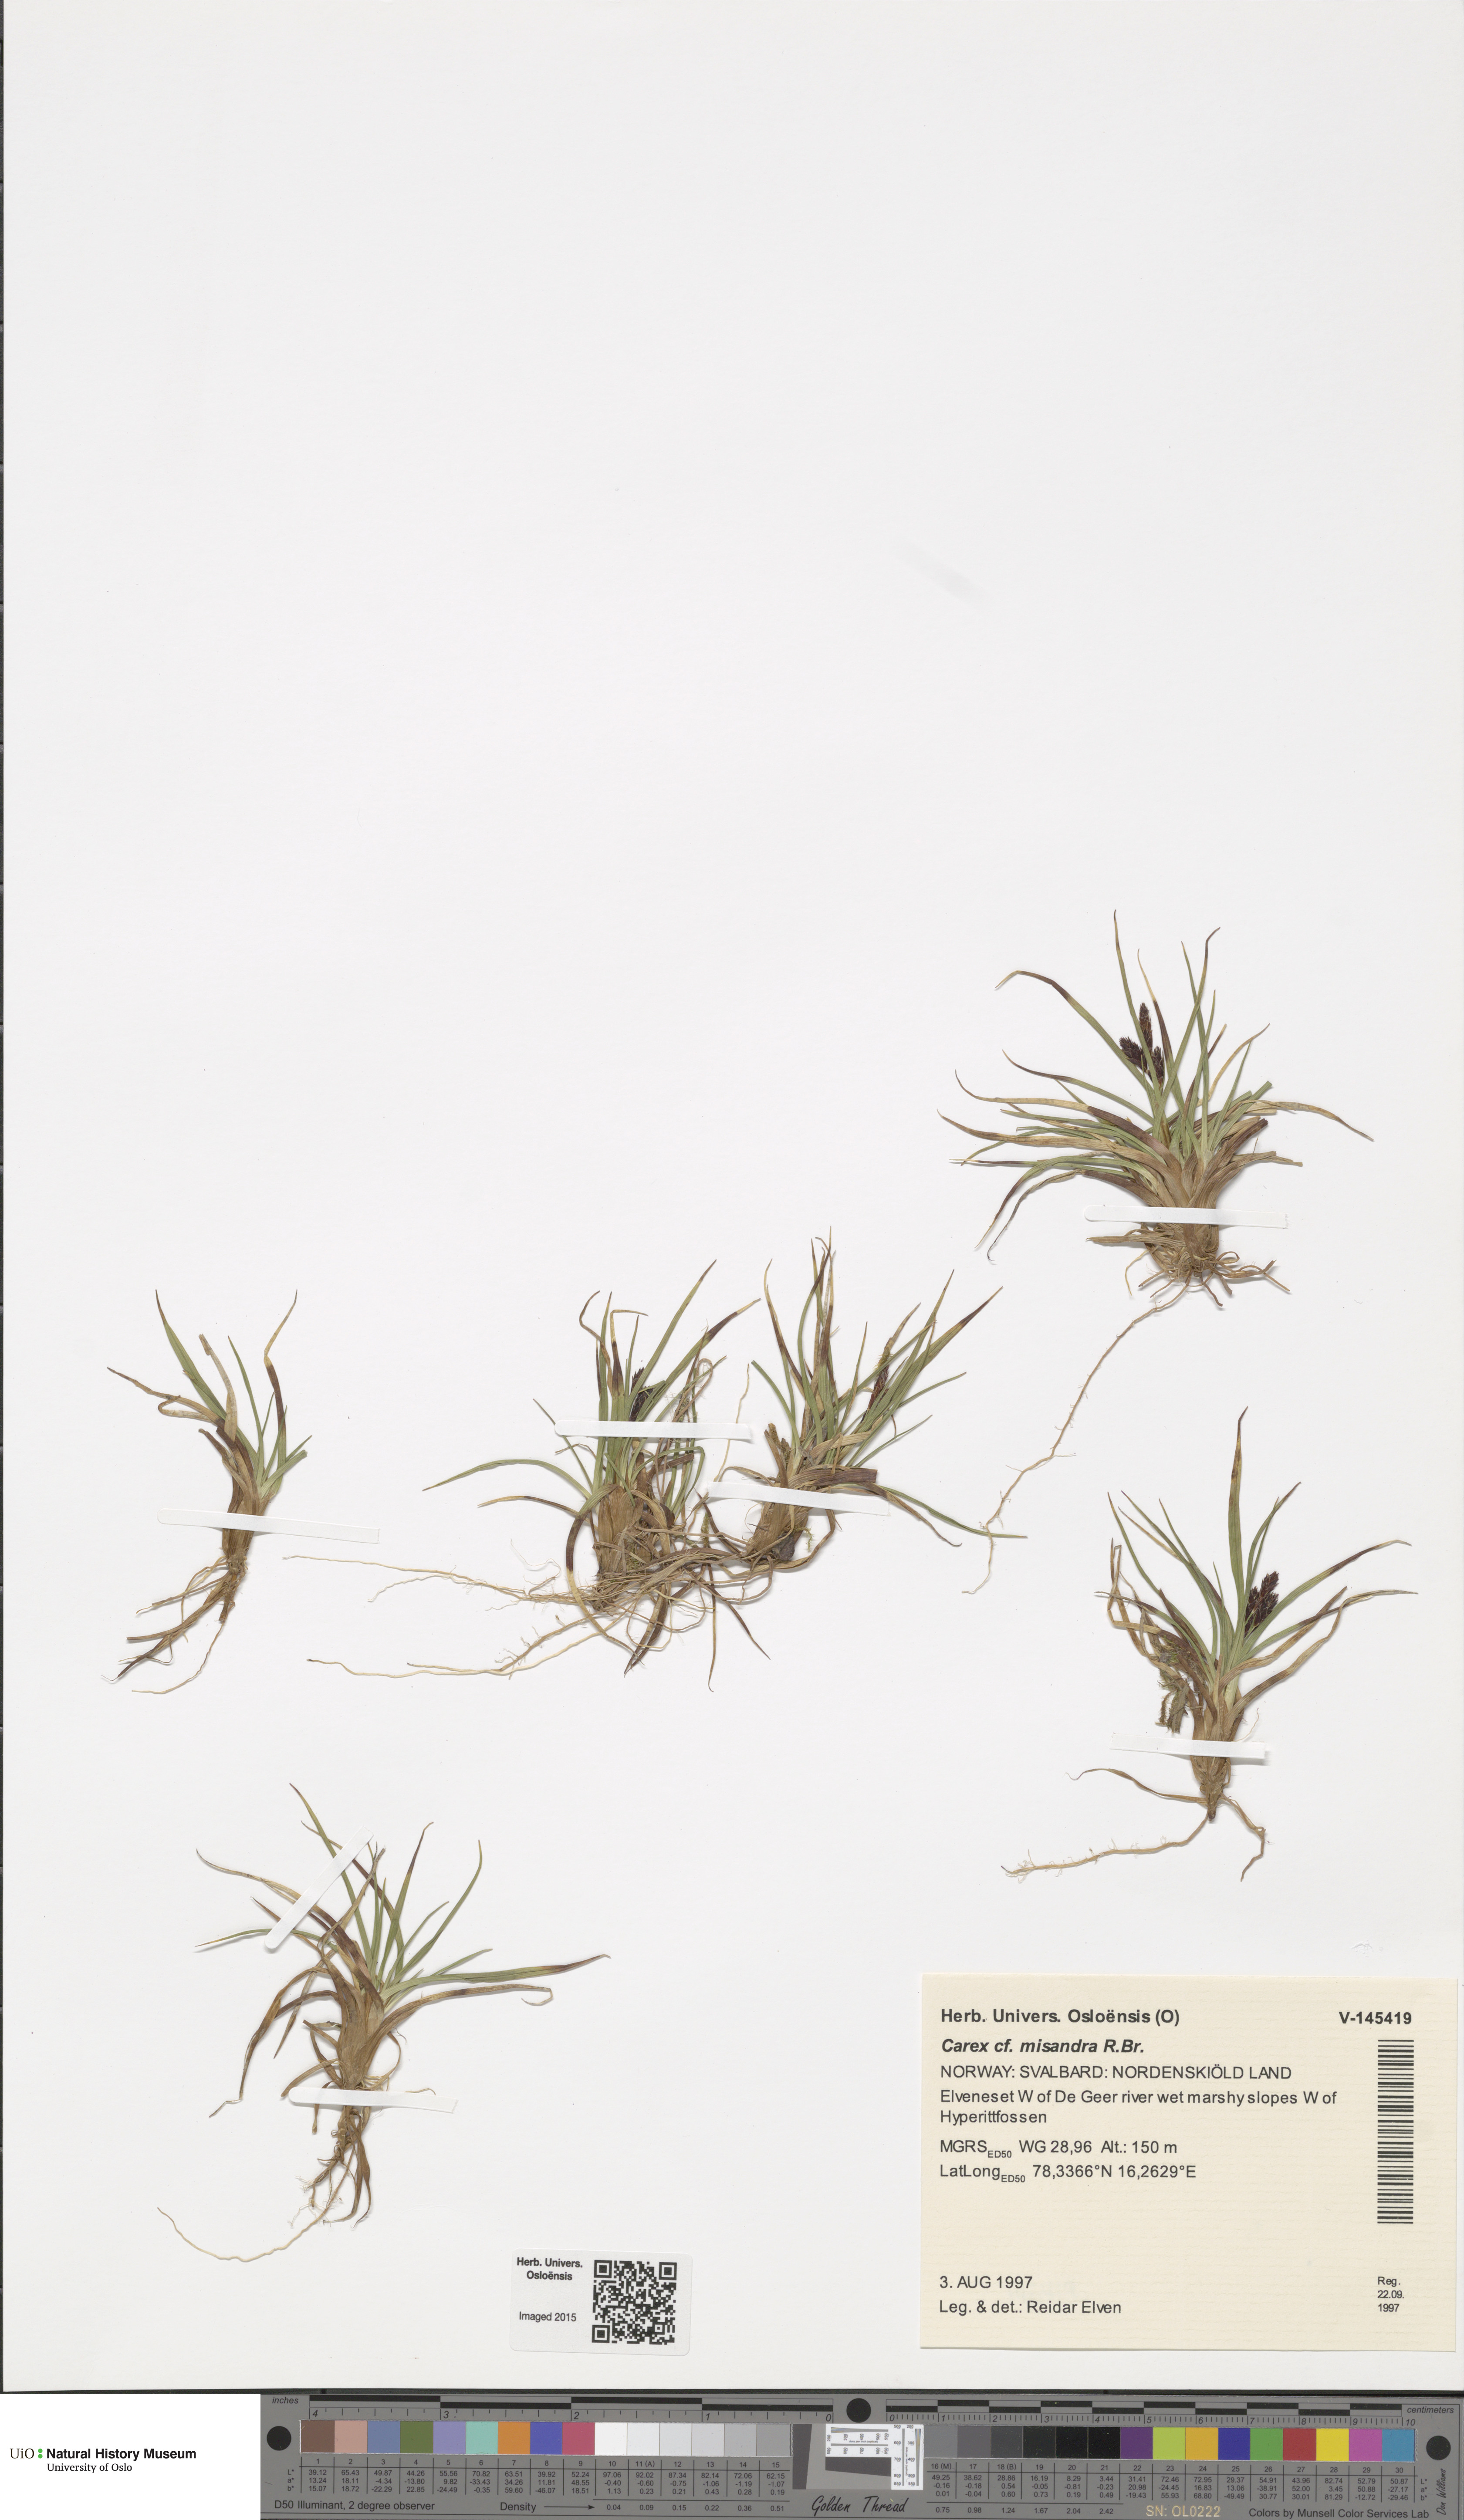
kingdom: Plantae
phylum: Tracheophyta
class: Liliopsida
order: Poales
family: Cyperaceae
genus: Carex
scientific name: Carex fuliginosa
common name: Few-flowered sedge
